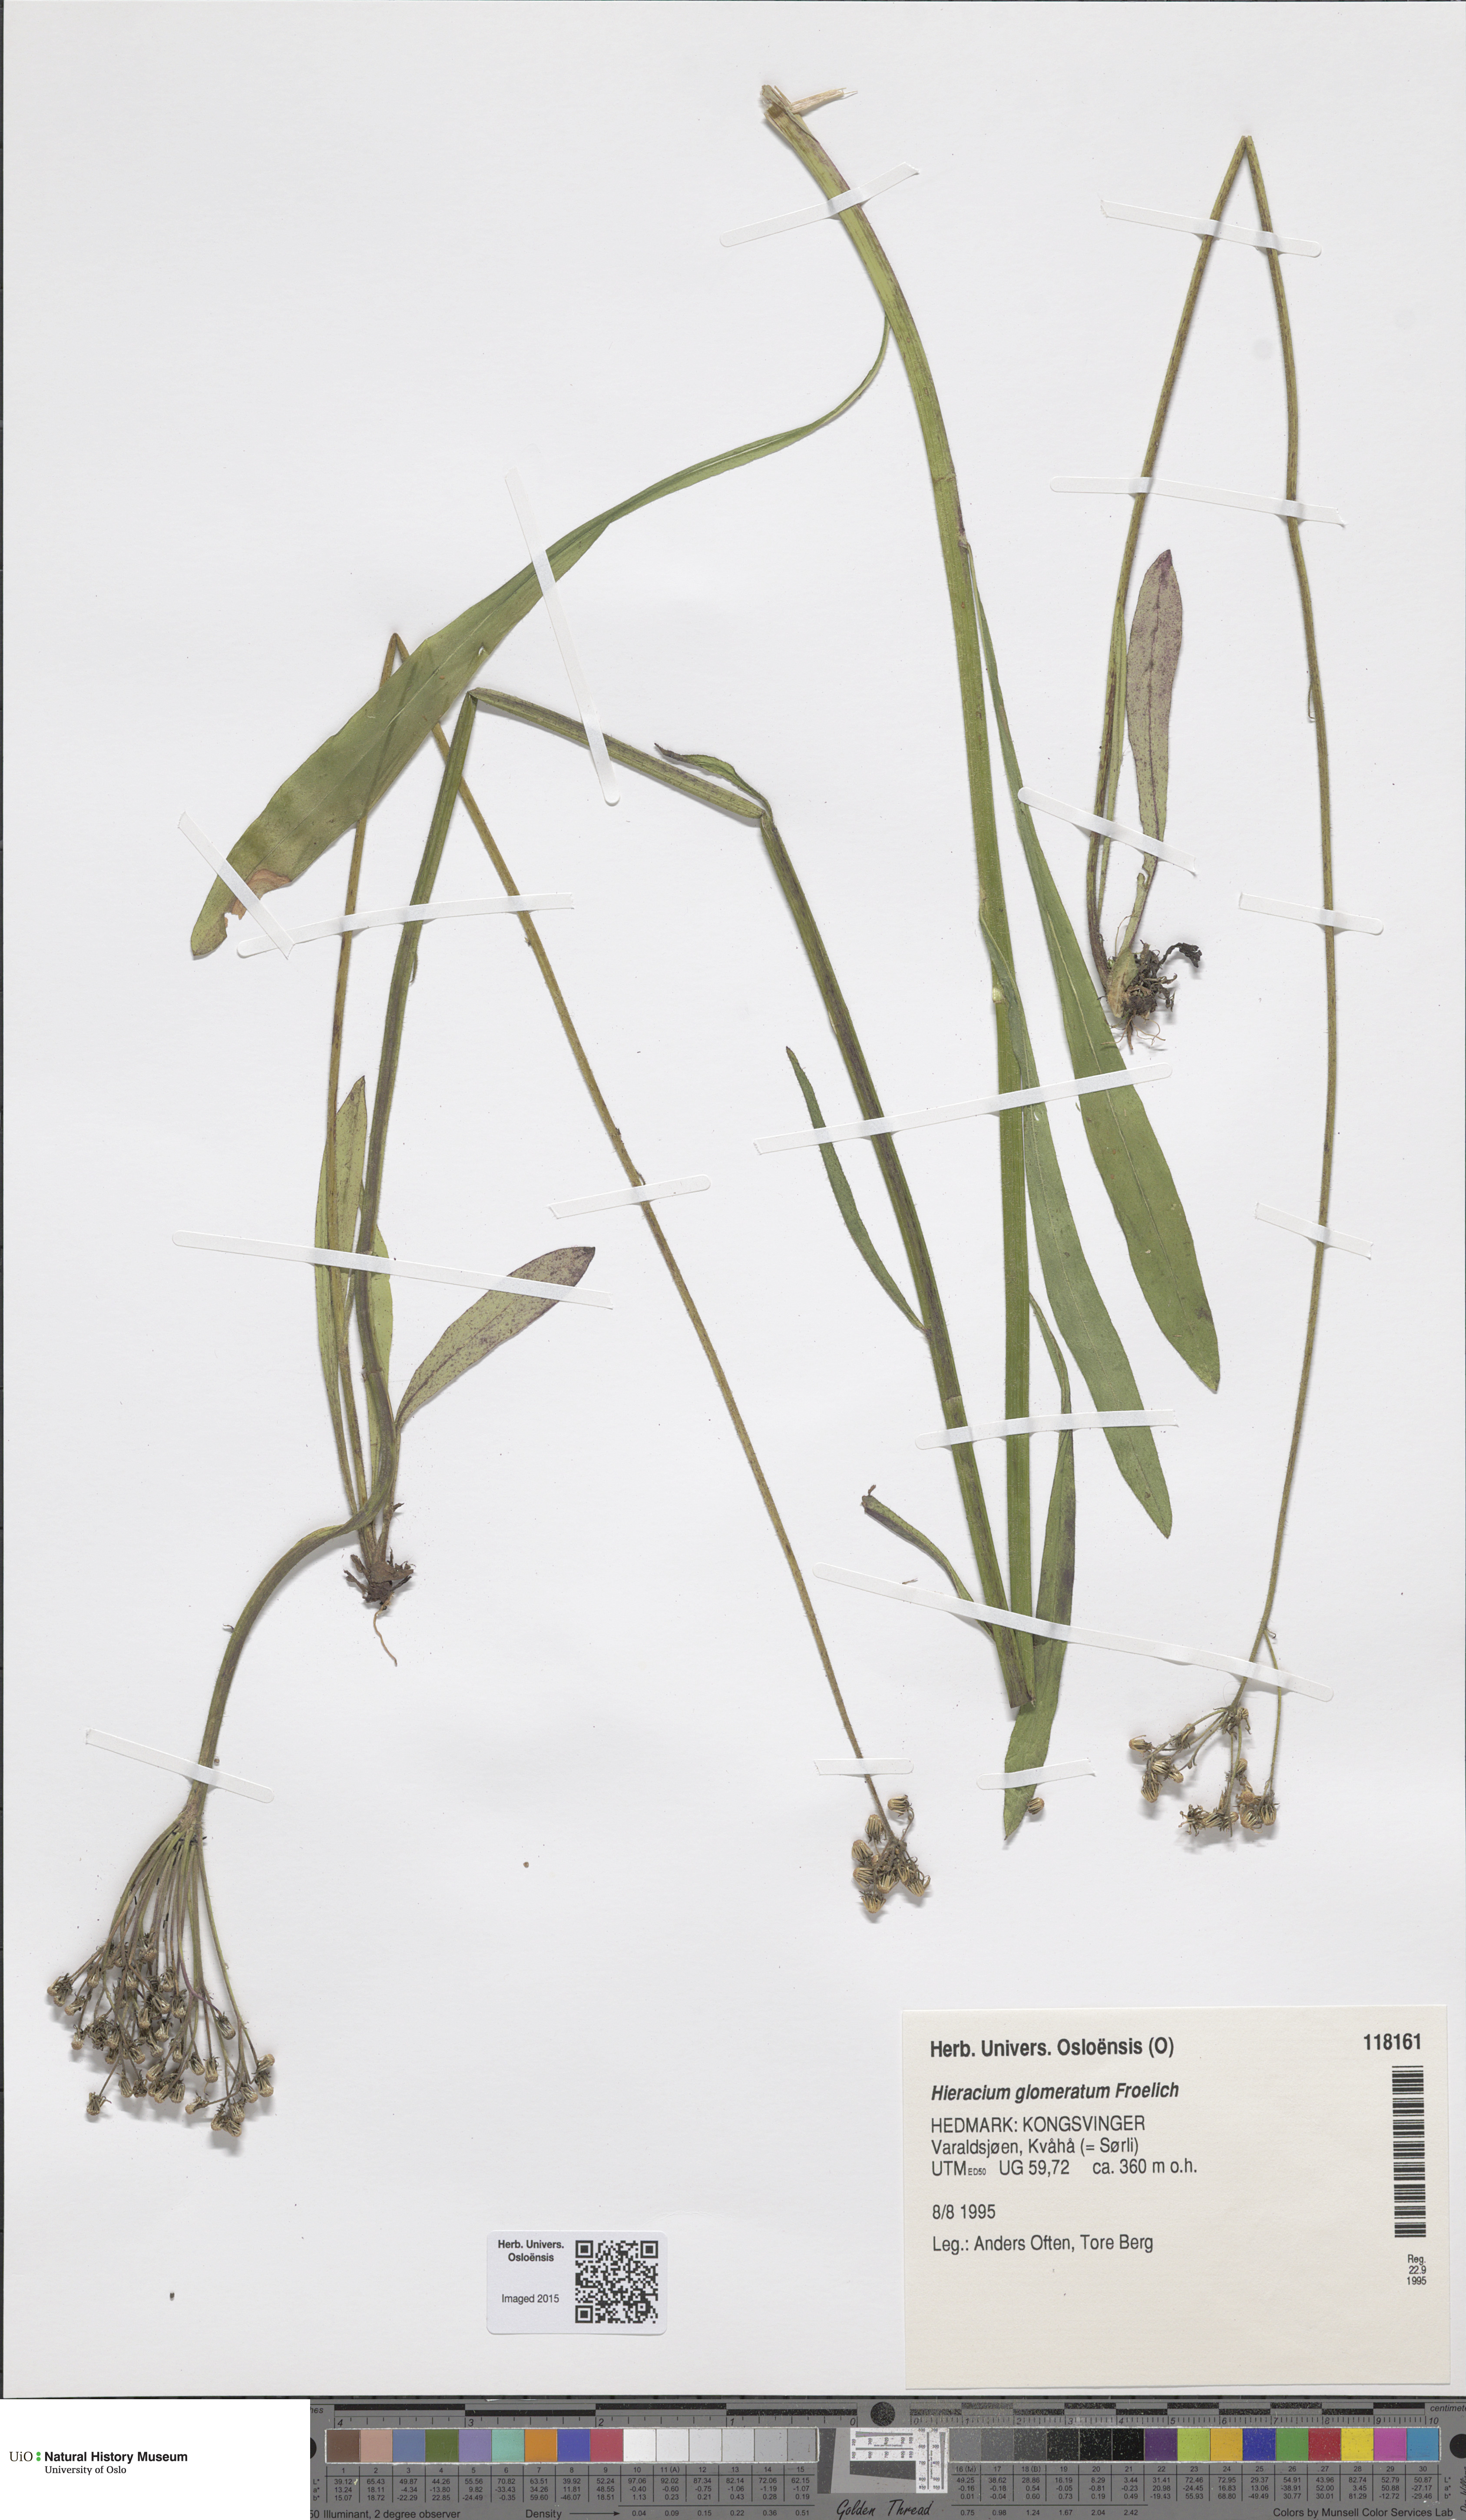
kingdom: Plantae
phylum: Tracheophyta
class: Magnoliopsida
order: Asterales
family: Asteraceae
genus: Pilosella
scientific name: Pilosella glomerata
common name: Queen devil hawkweed
